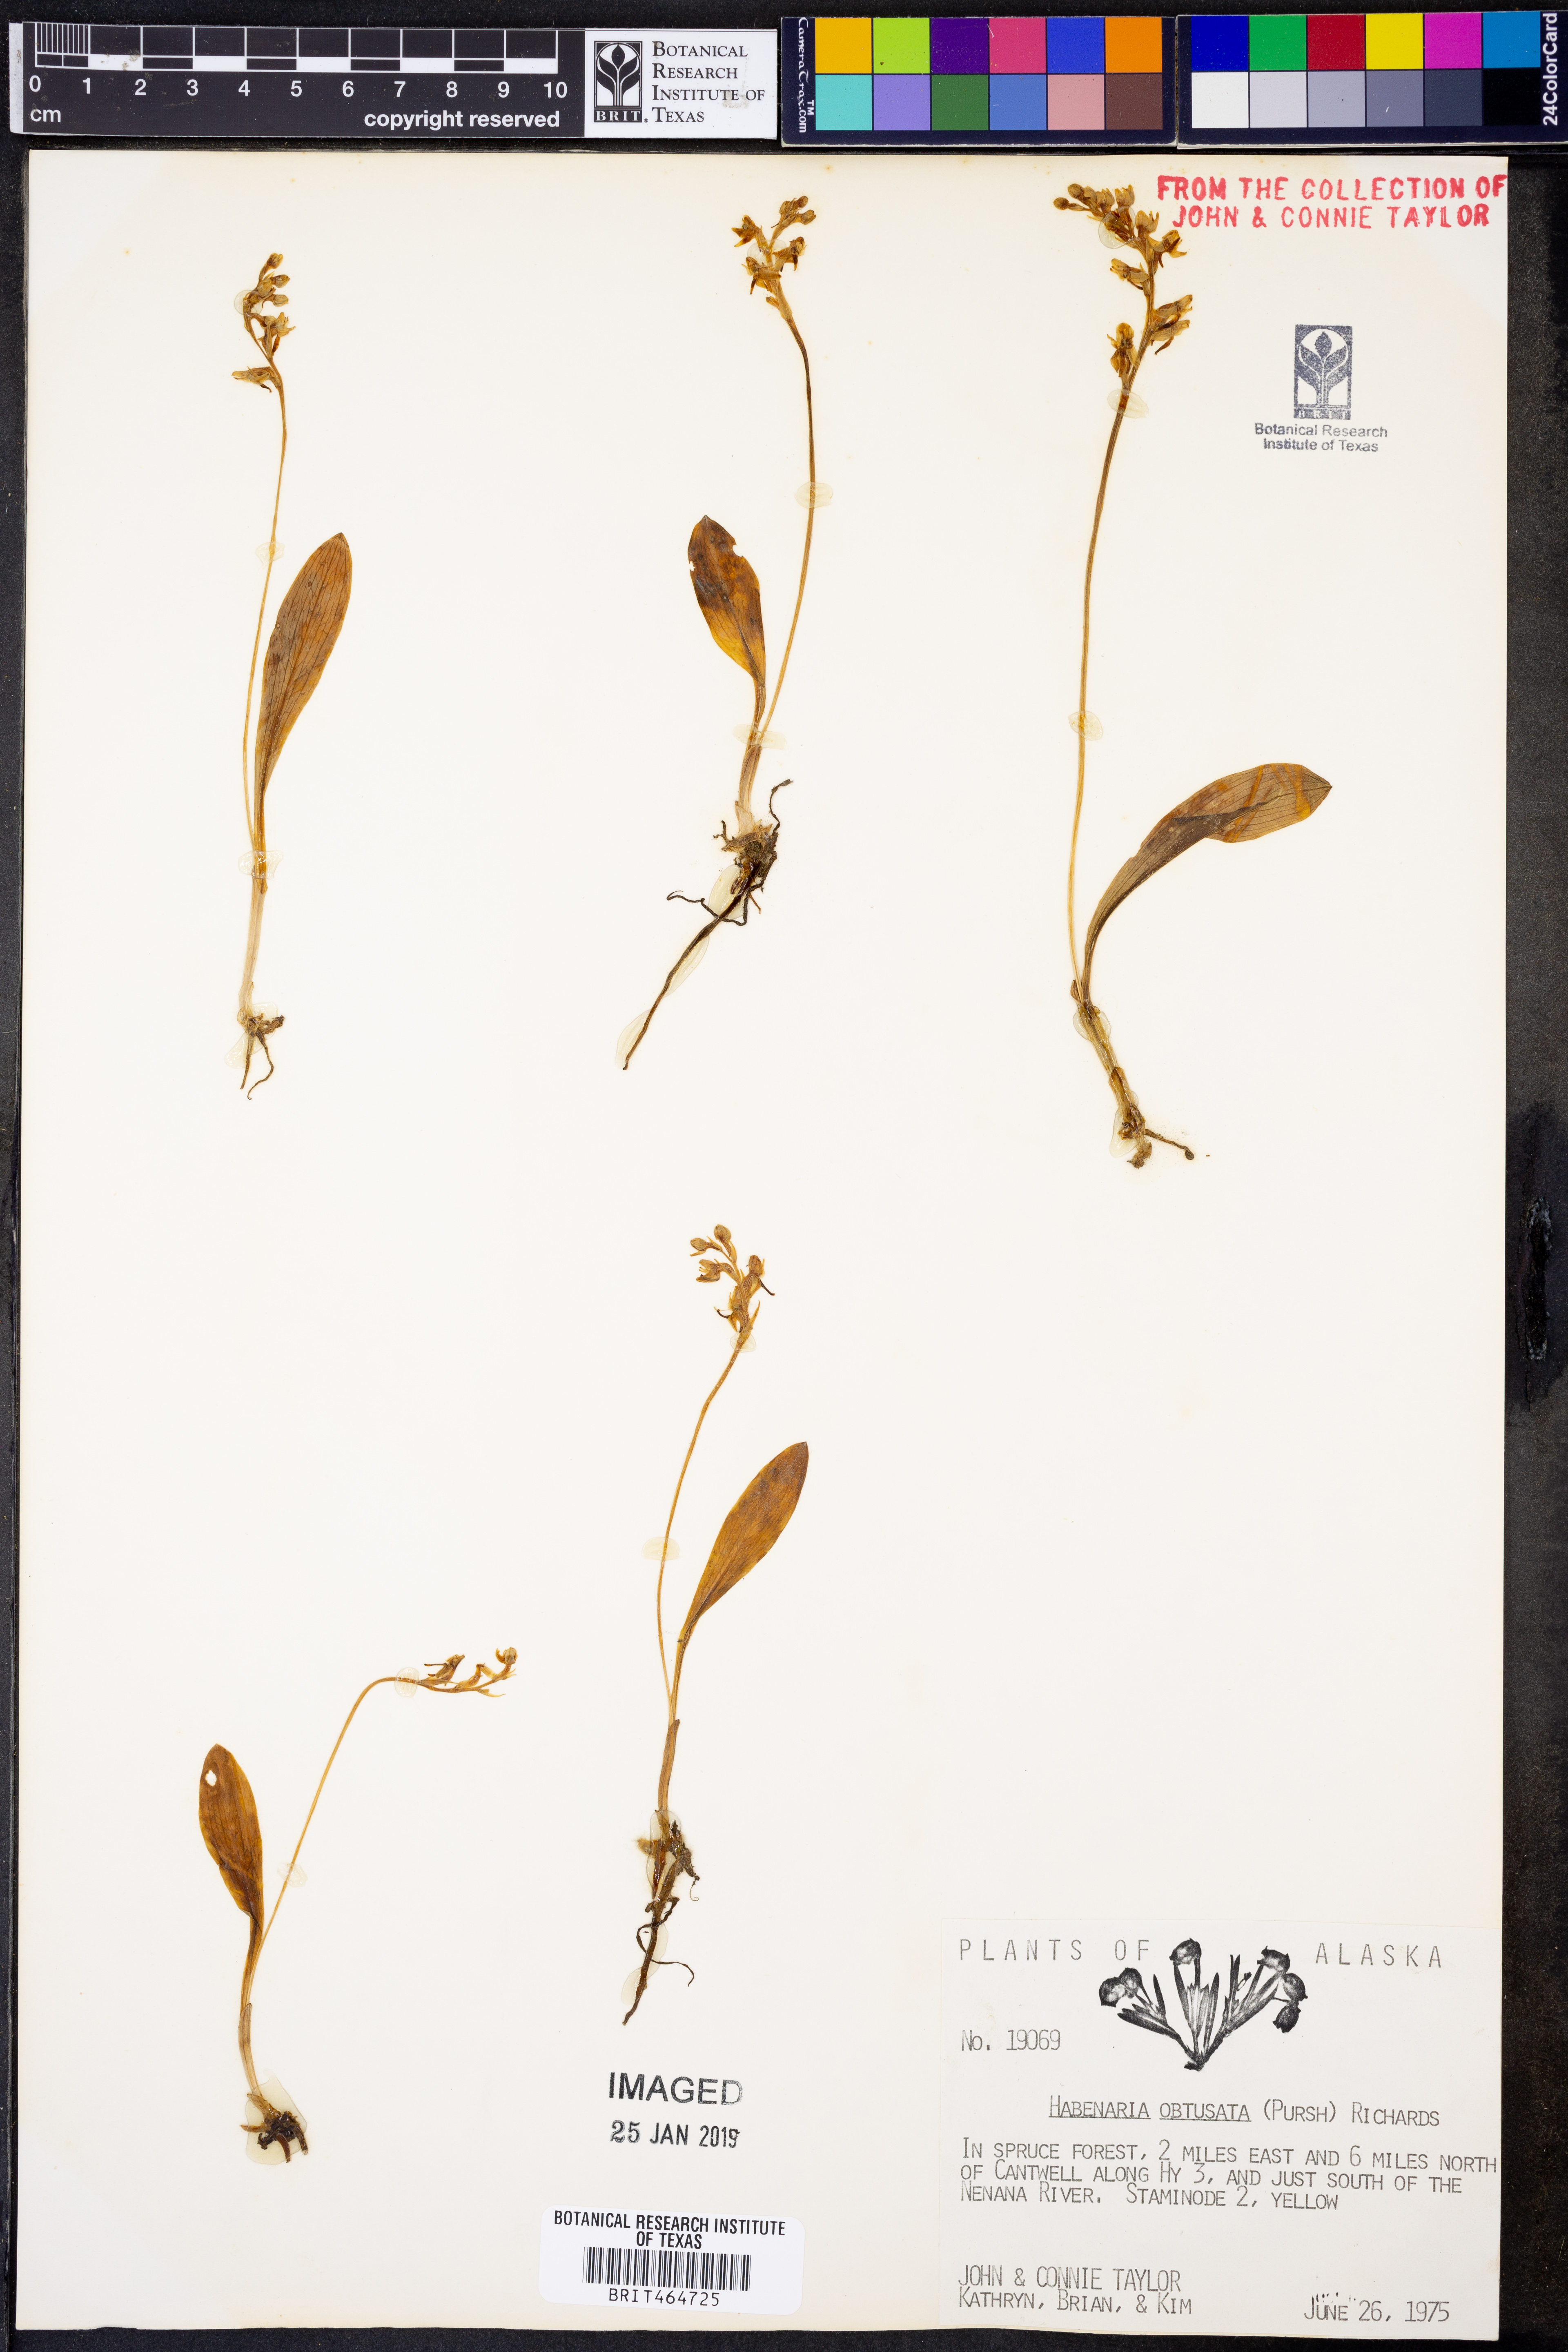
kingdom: Plantae
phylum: Tracheophyta
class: Liliopsida
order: Asparagales
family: Orchidaceae
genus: Platanthera
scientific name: Platanthera obtusata
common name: Blunt bog orchid
